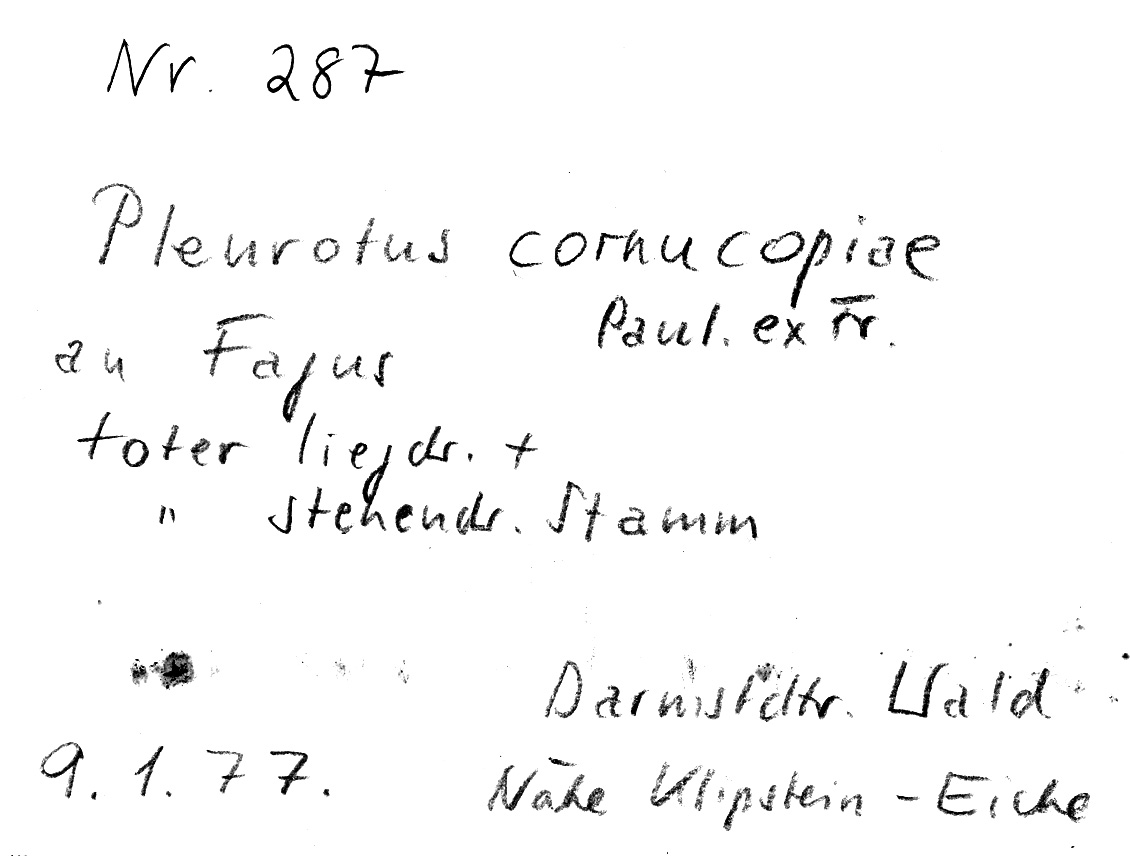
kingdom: Fungi
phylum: Basidiomycota
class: Agaricomycetes
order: Agaricales
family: Pleurotaceae
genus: Pleurotus
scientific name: Pleurotus cornucopiae
